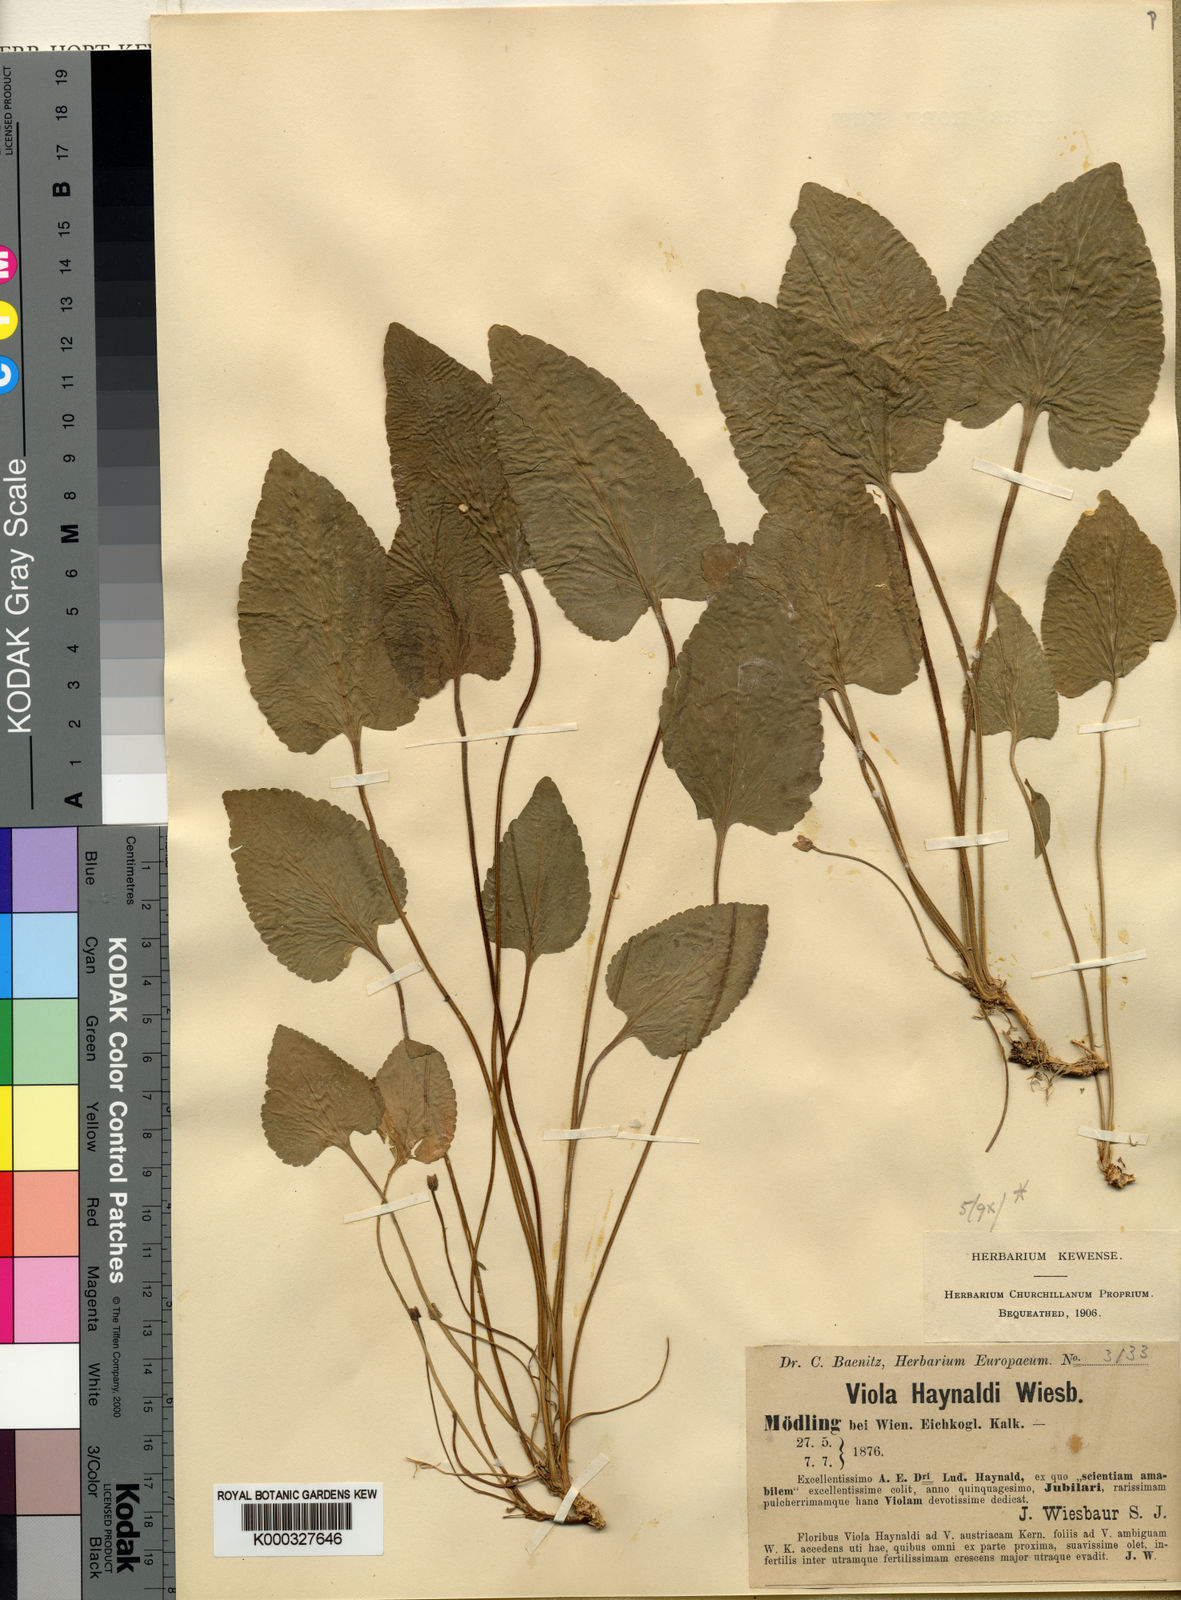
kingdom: Plantae
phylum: Tracheophyta
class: Magnoliopsida
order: Malpighiales
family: Violaceae
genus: Viola
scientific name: Viola ambigua
